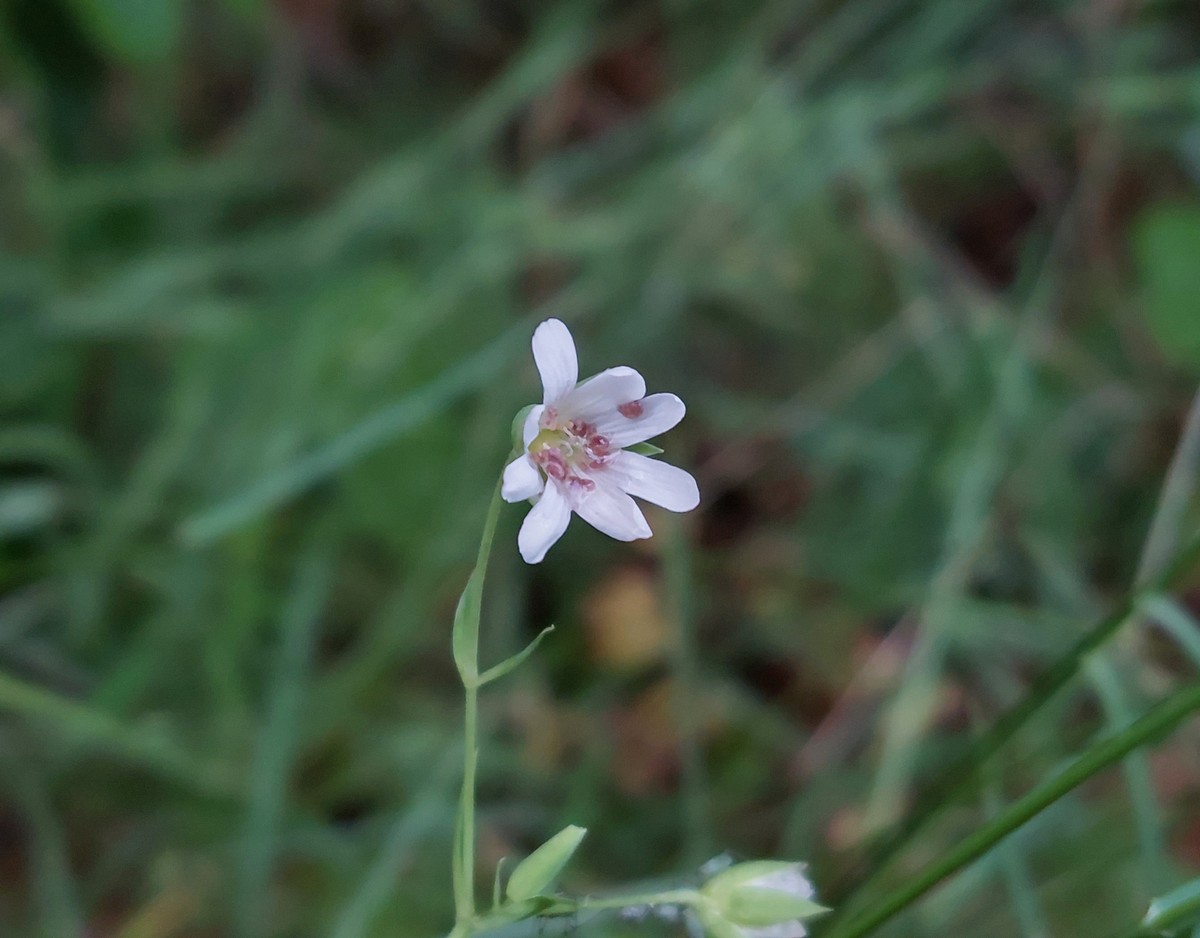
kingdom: Fungi
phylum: Basidiomycota
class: Microbotryomycetes
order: Microbotryales
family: Microbotryaceae
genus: Microbotryum
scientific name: Microbotryum stellariae
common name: fladstjerne-støvbladrust
